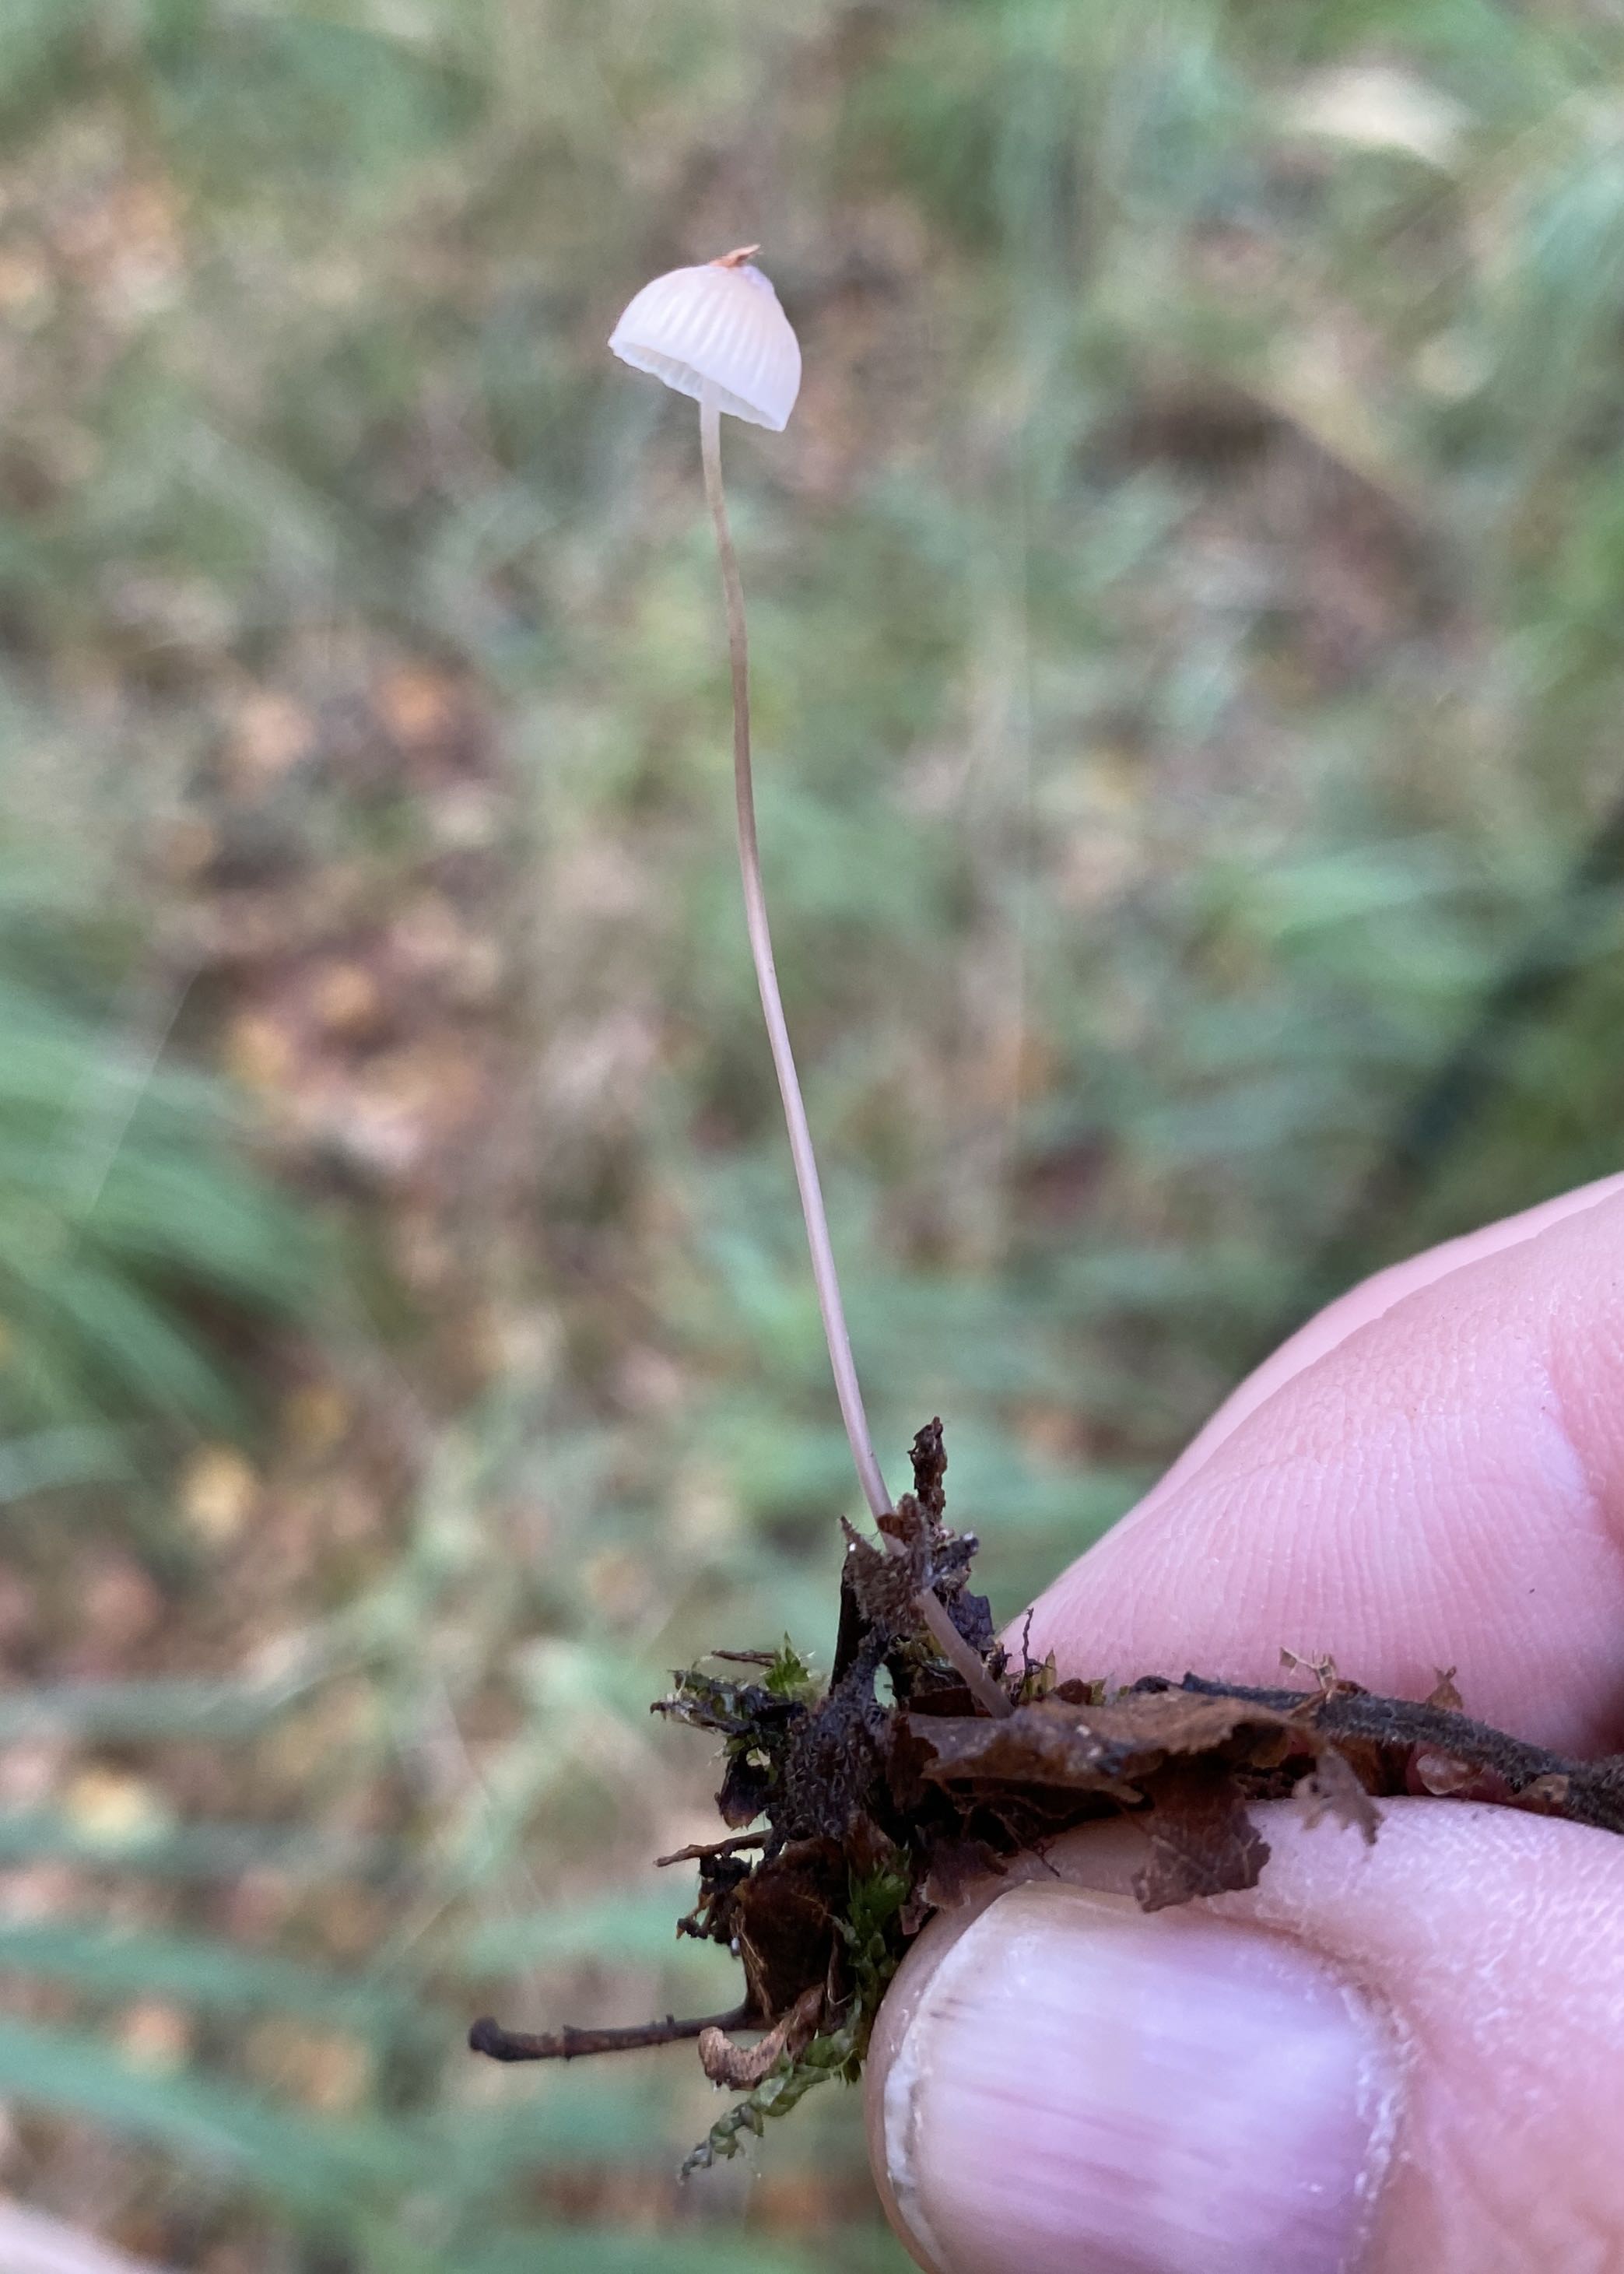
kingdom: Fungi
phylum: Basidiomycota
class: Agaricomycetes
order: Agaricales
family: Mycenaceae
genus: Mycena
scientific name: Mycena
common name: huesvamp
